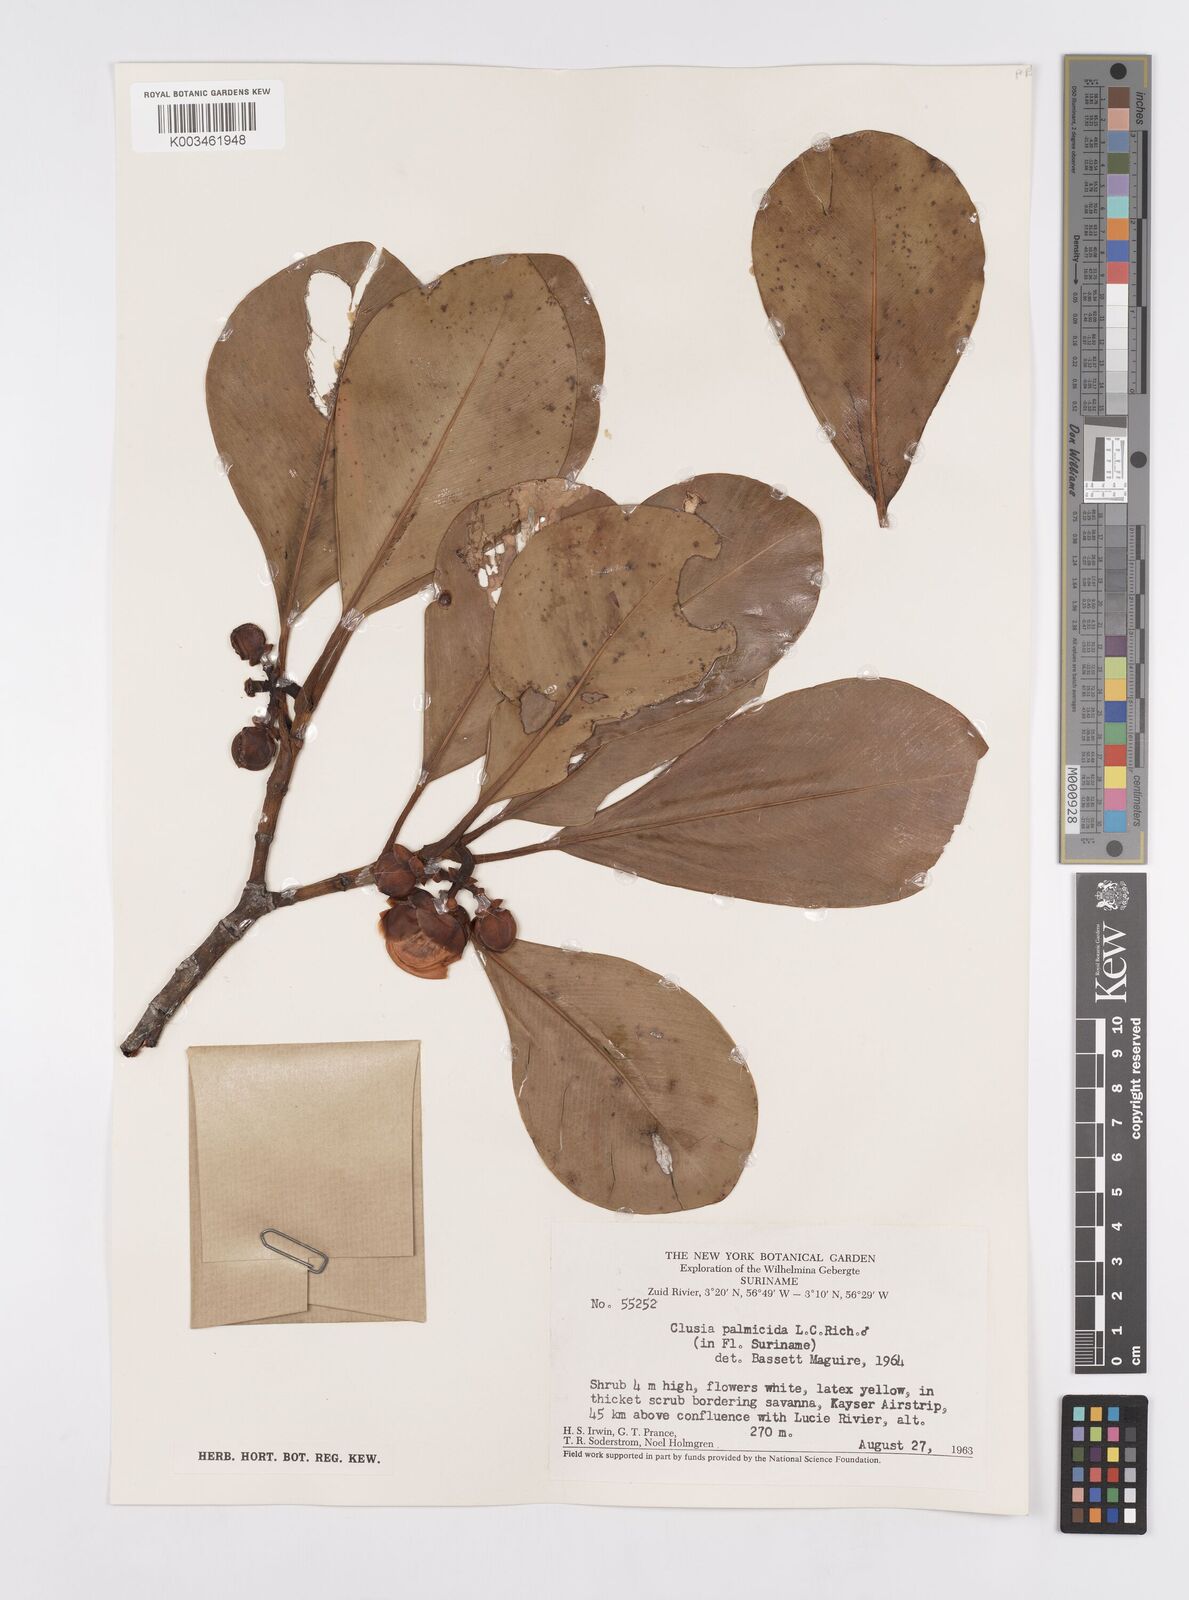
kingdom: Plantae
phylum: Tracheophyta
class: Magnoliopsida
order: Malpighiales
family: Clusiaceae
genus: Clusia
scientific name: Clusia palmicida
